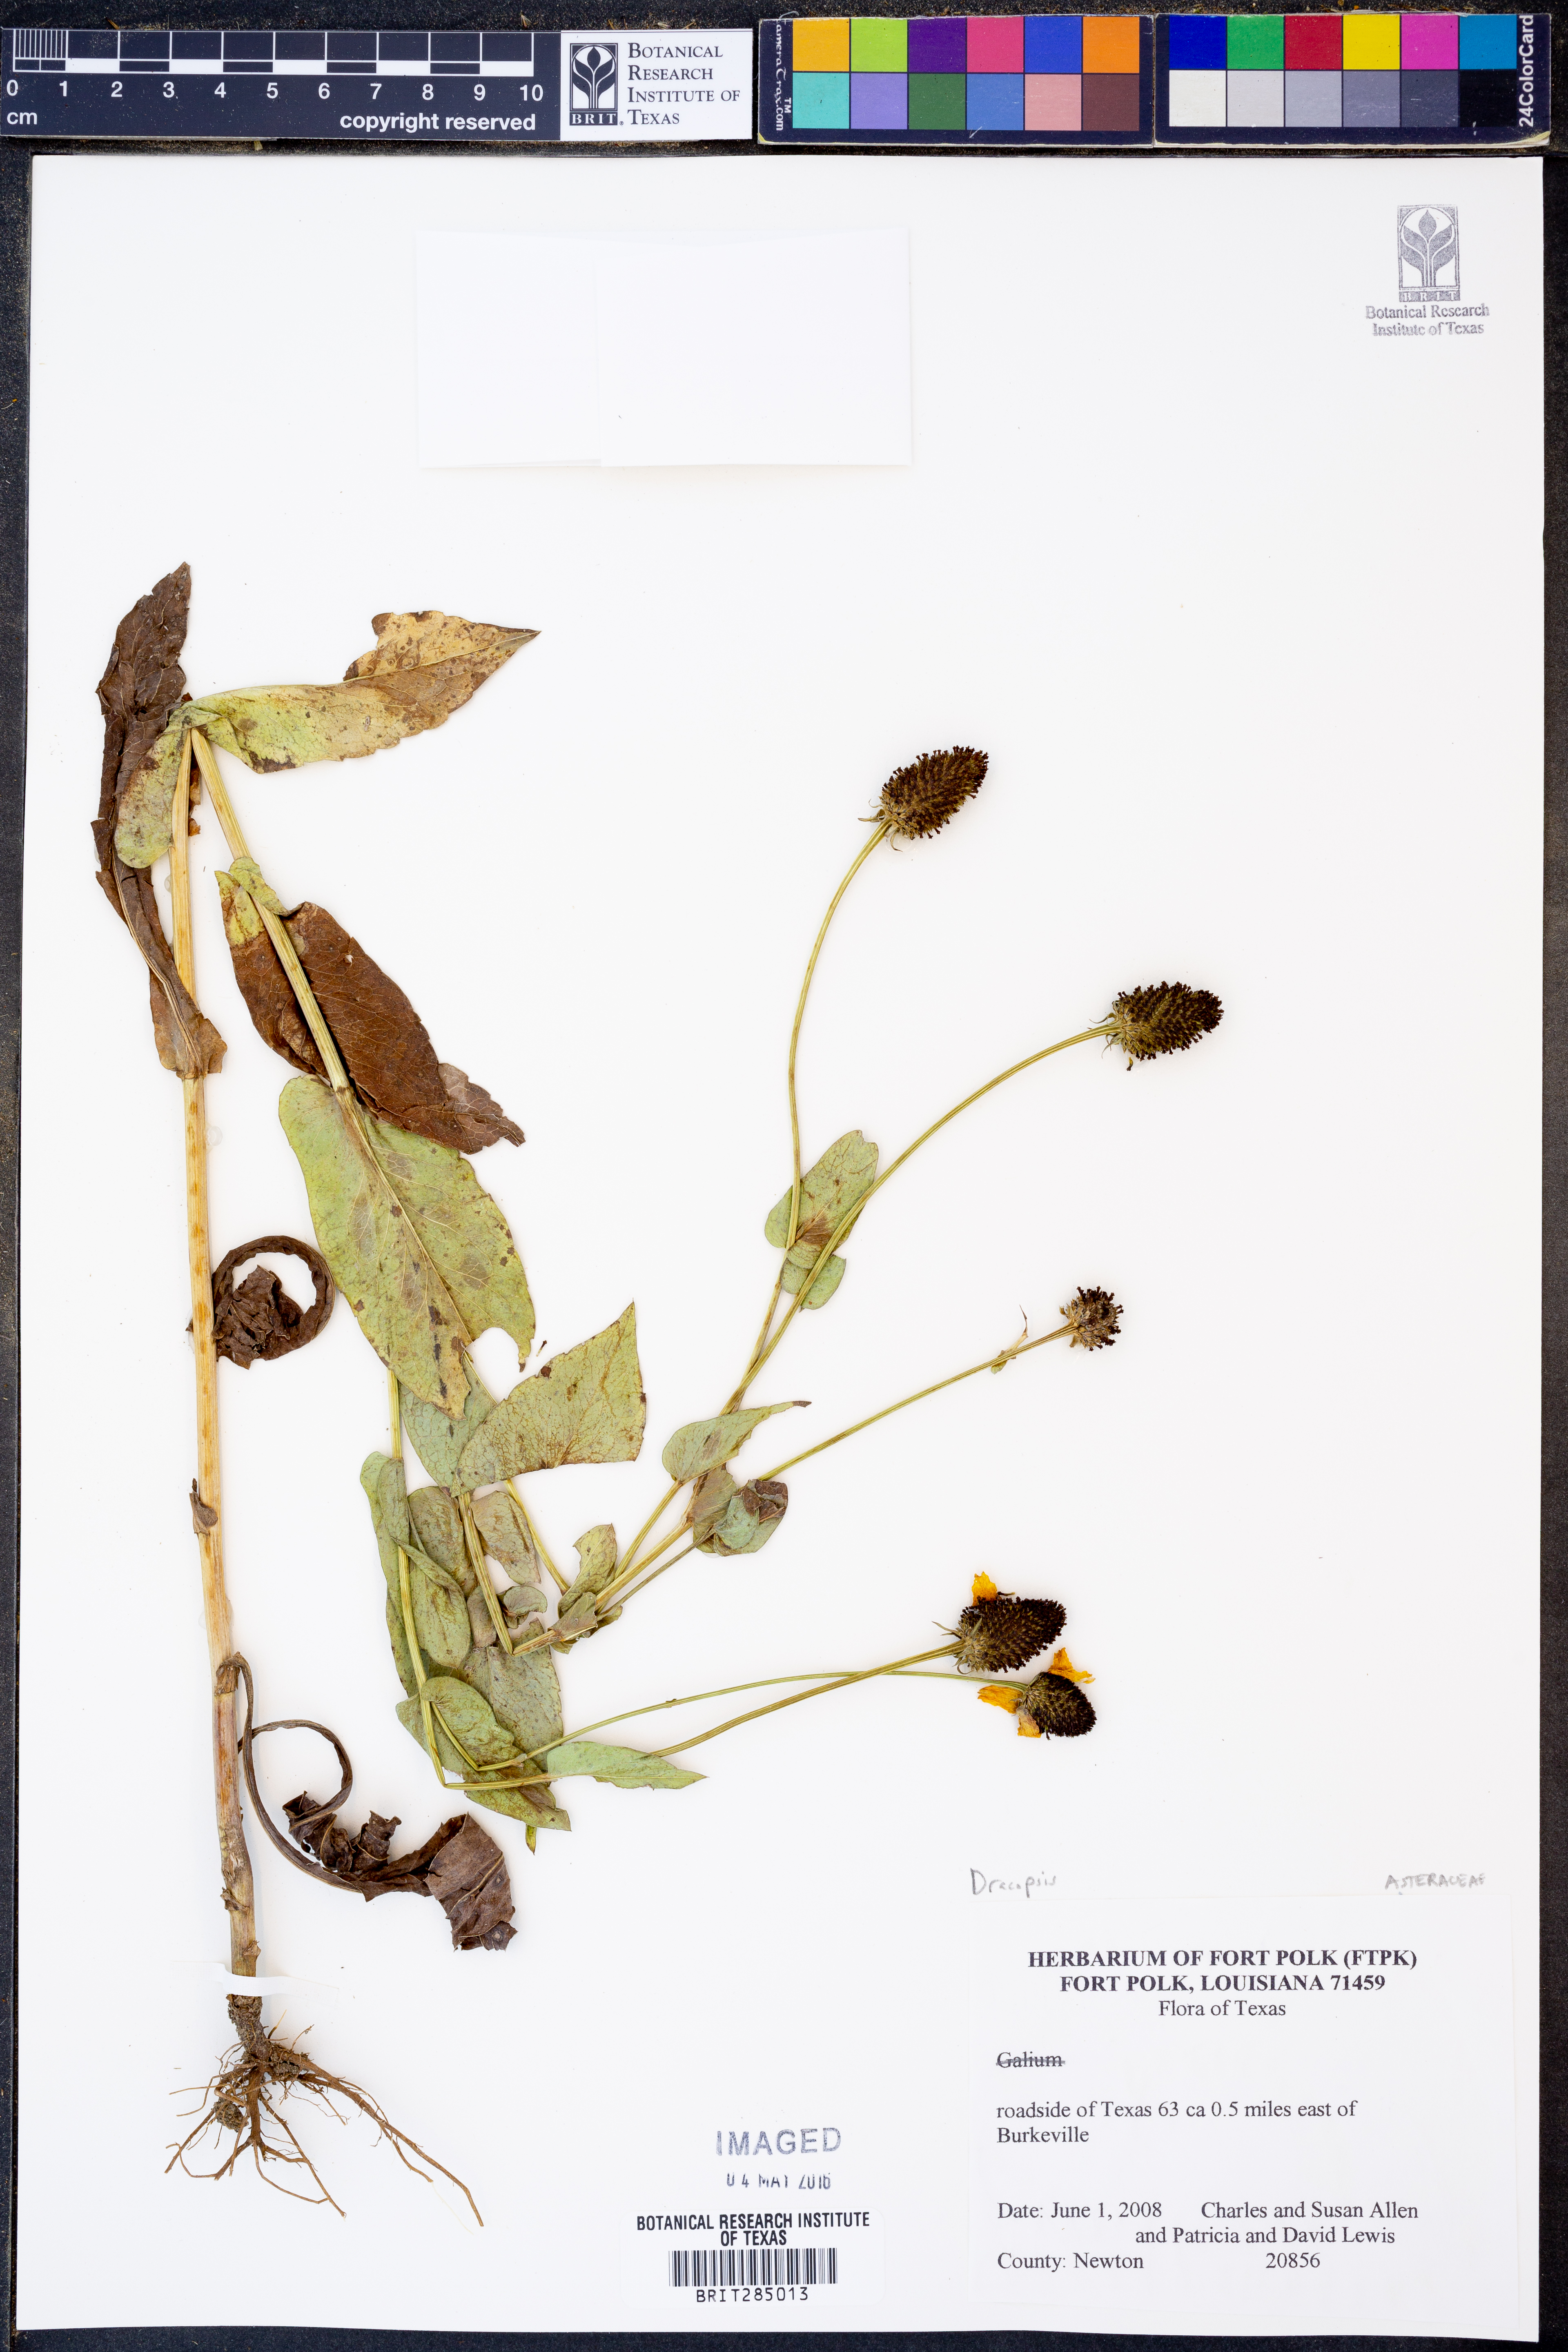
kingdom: Plantae
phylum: Tracheophyta
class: Magnoliopsida
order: Asterales
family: Asteraceae
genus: Rudbeckia
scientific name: Rudbeckia
